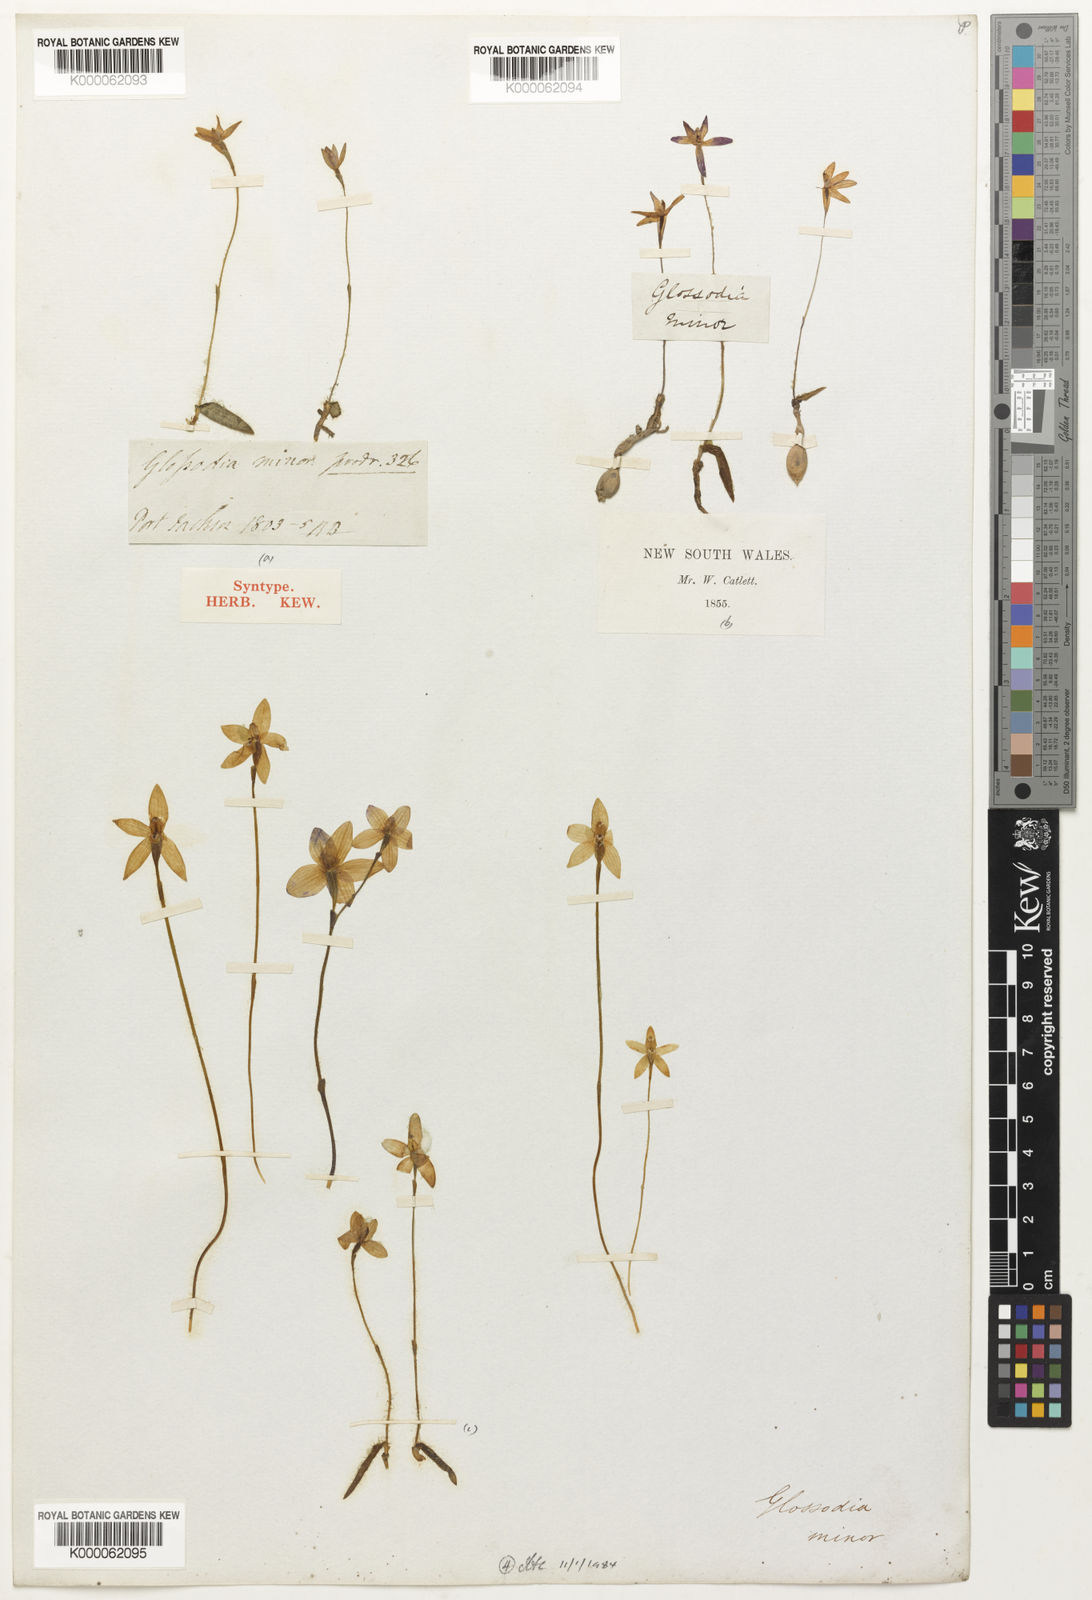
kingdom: Plantae
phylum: Tracheophyta
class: Liliopsida
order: Asparagales
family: Orchidaceae
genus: Caladenia
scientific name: Caladenia minorata
